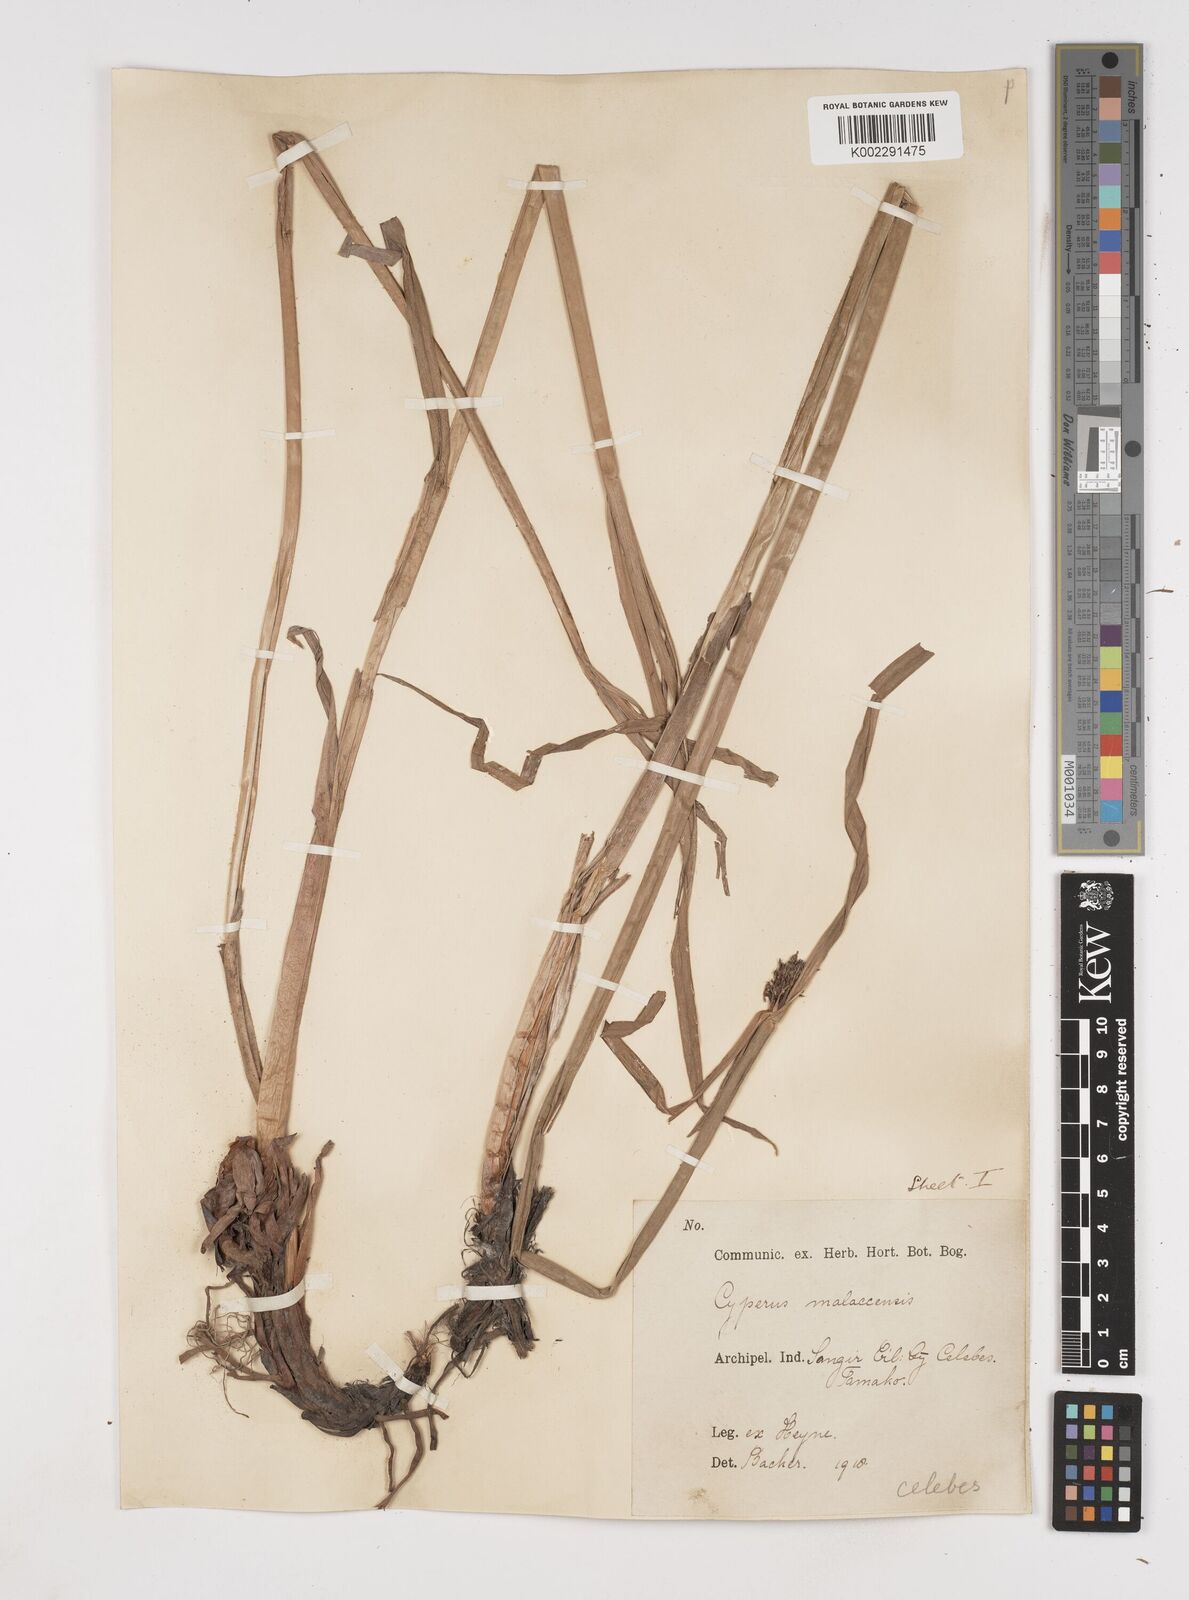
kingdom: Plantae
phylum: Tracheophyta
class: Liliopsida
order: Poales
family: Cyperaceae
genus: Cyperus
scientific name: Cyperus malaccensis
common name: Shichito matgrass
